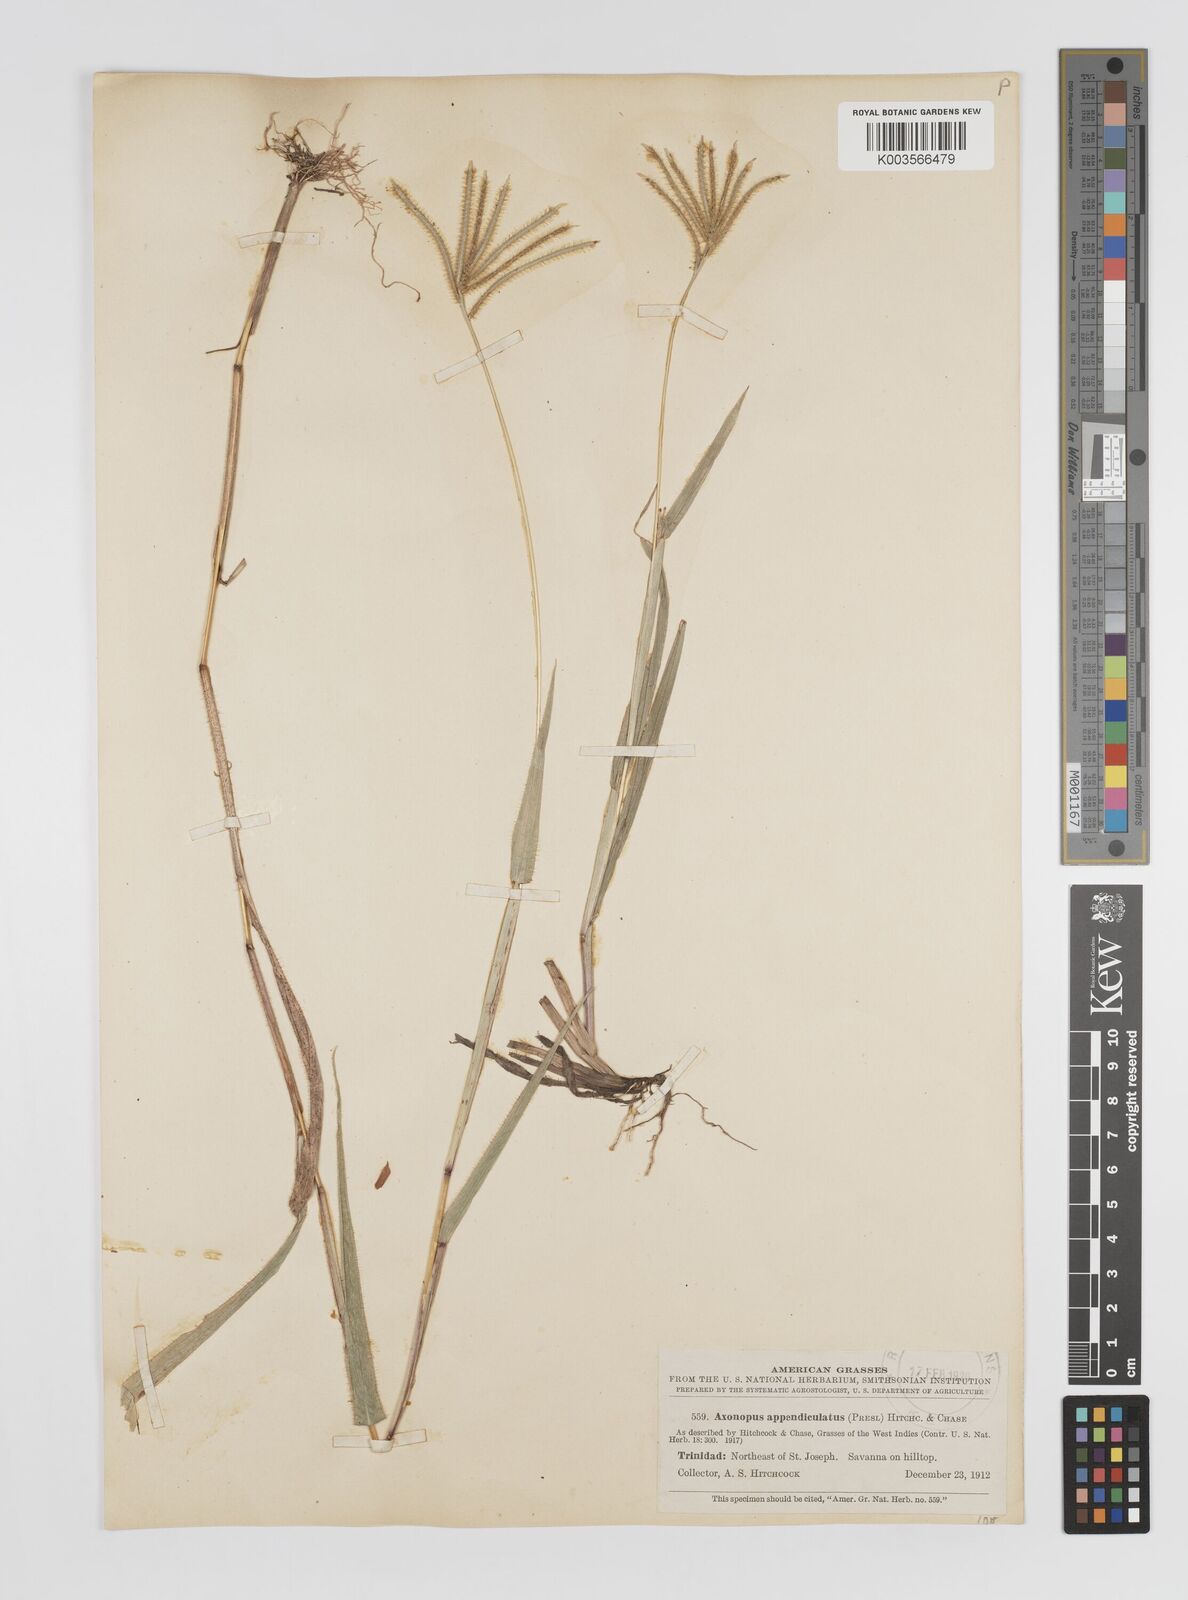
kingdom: Plantae
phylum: Tracheophyta
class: Liliopsida
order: Poales
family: Poaceae
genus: Axonopus
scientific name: Axonopus chrysoblepharis
